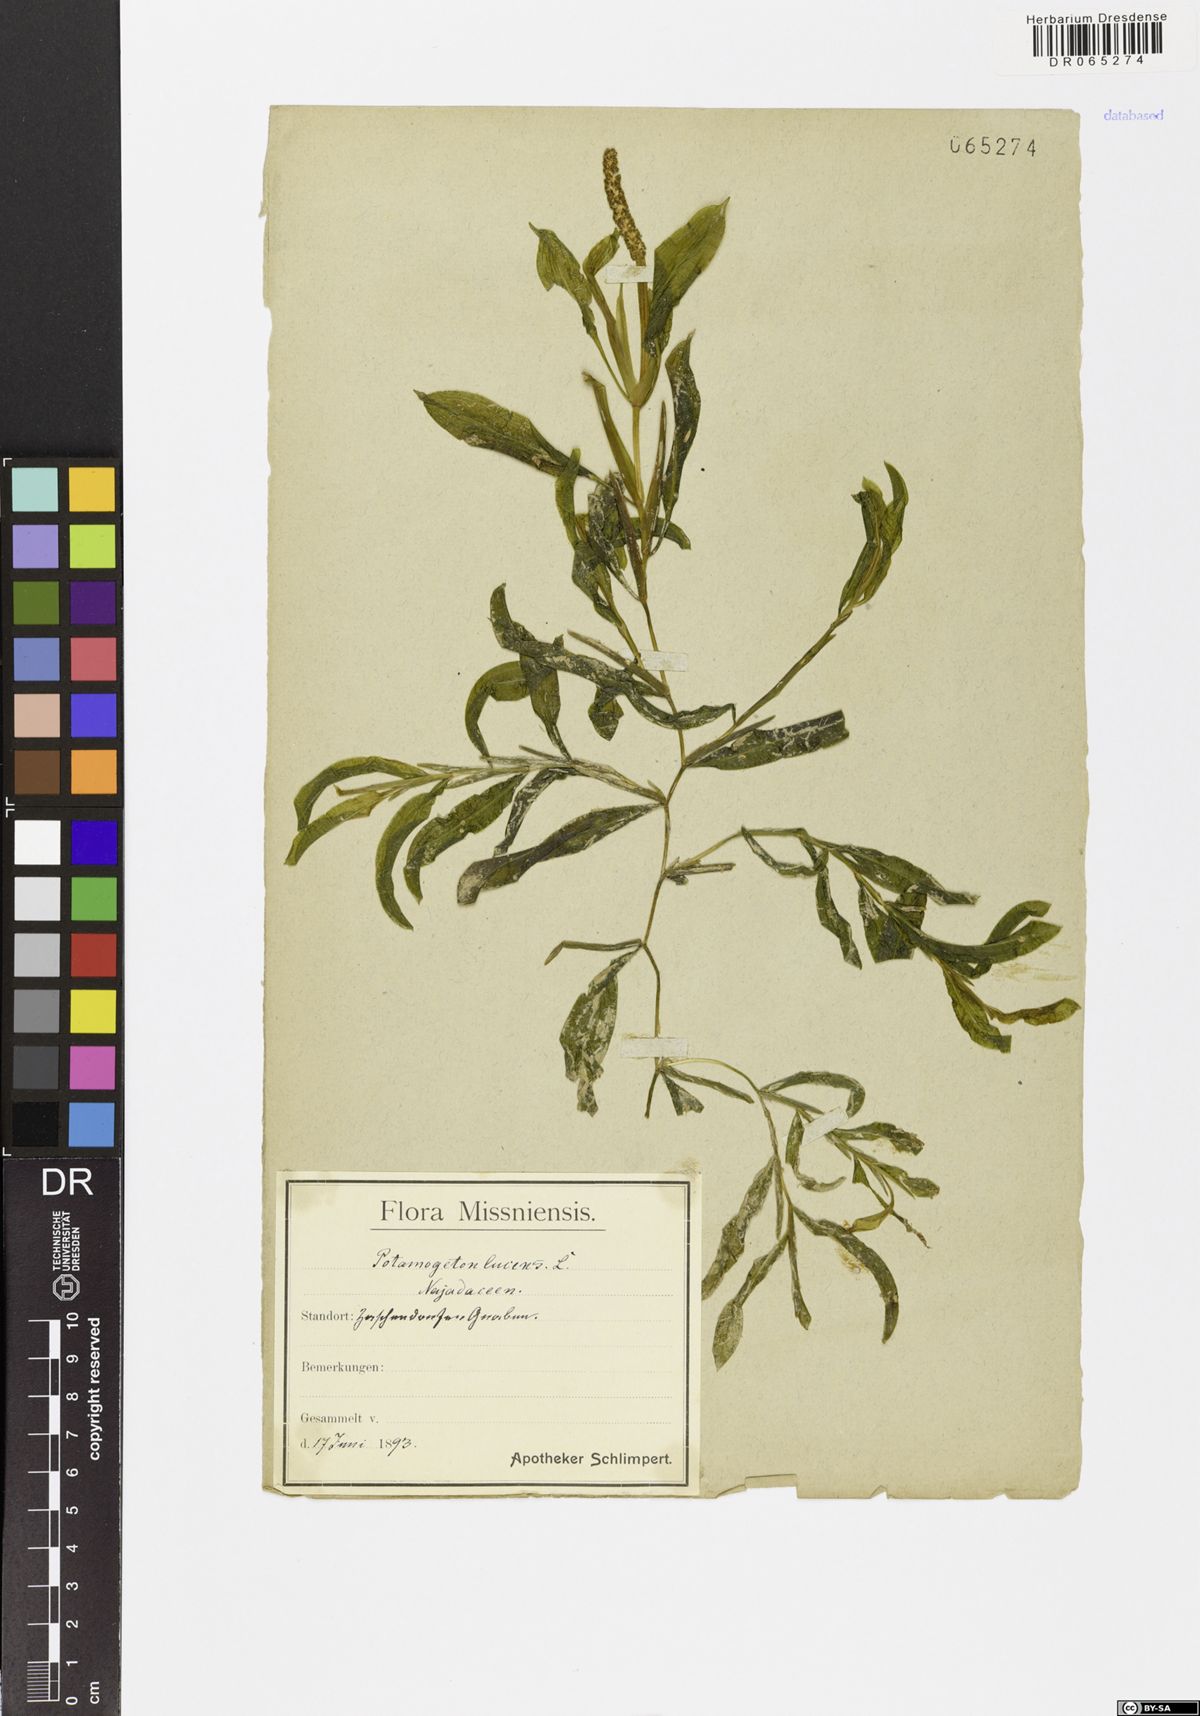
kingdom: Plantae
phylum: Tracheophyta
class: Liliopsida
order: Alismatales
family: Potamogetonaceae
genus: Potamogeton
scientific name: Potamogeton lucens
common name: Shining pondweed
